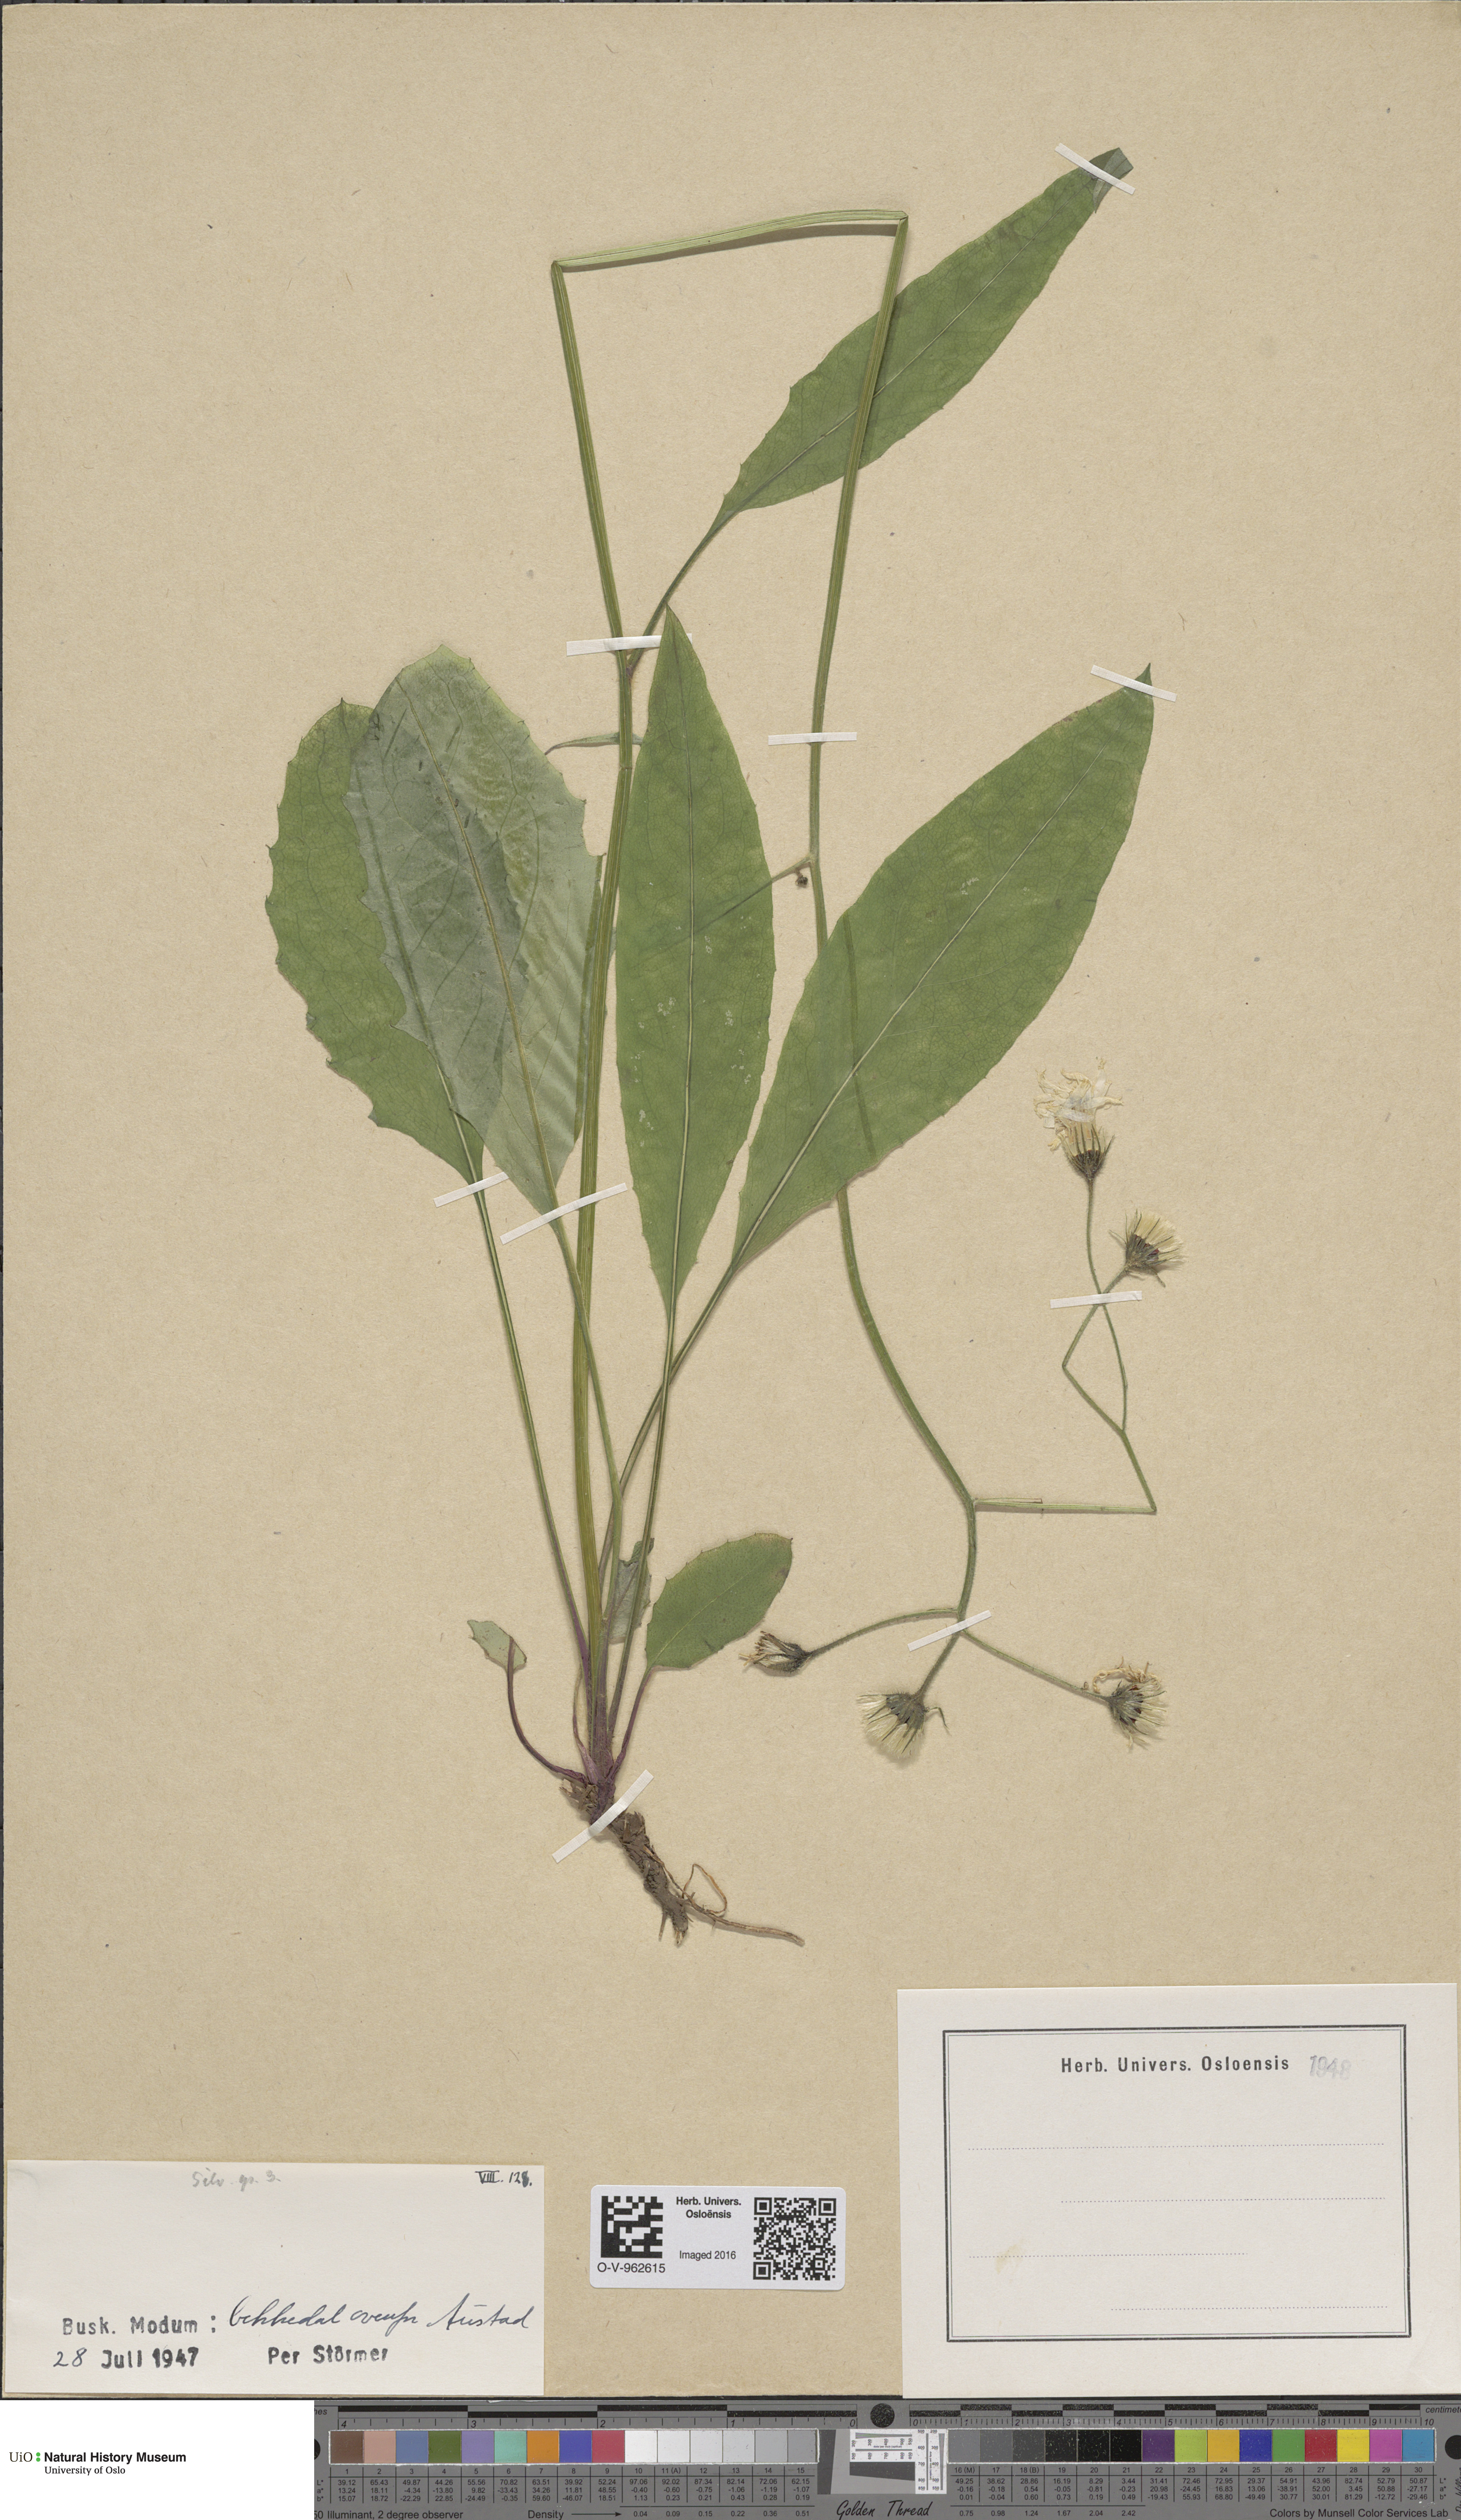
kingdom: Plantae
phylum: Tracheophyta
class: Magnoliopsida
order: Asterales
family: Asteraceae
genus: Hieracium
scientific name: Hieracium
